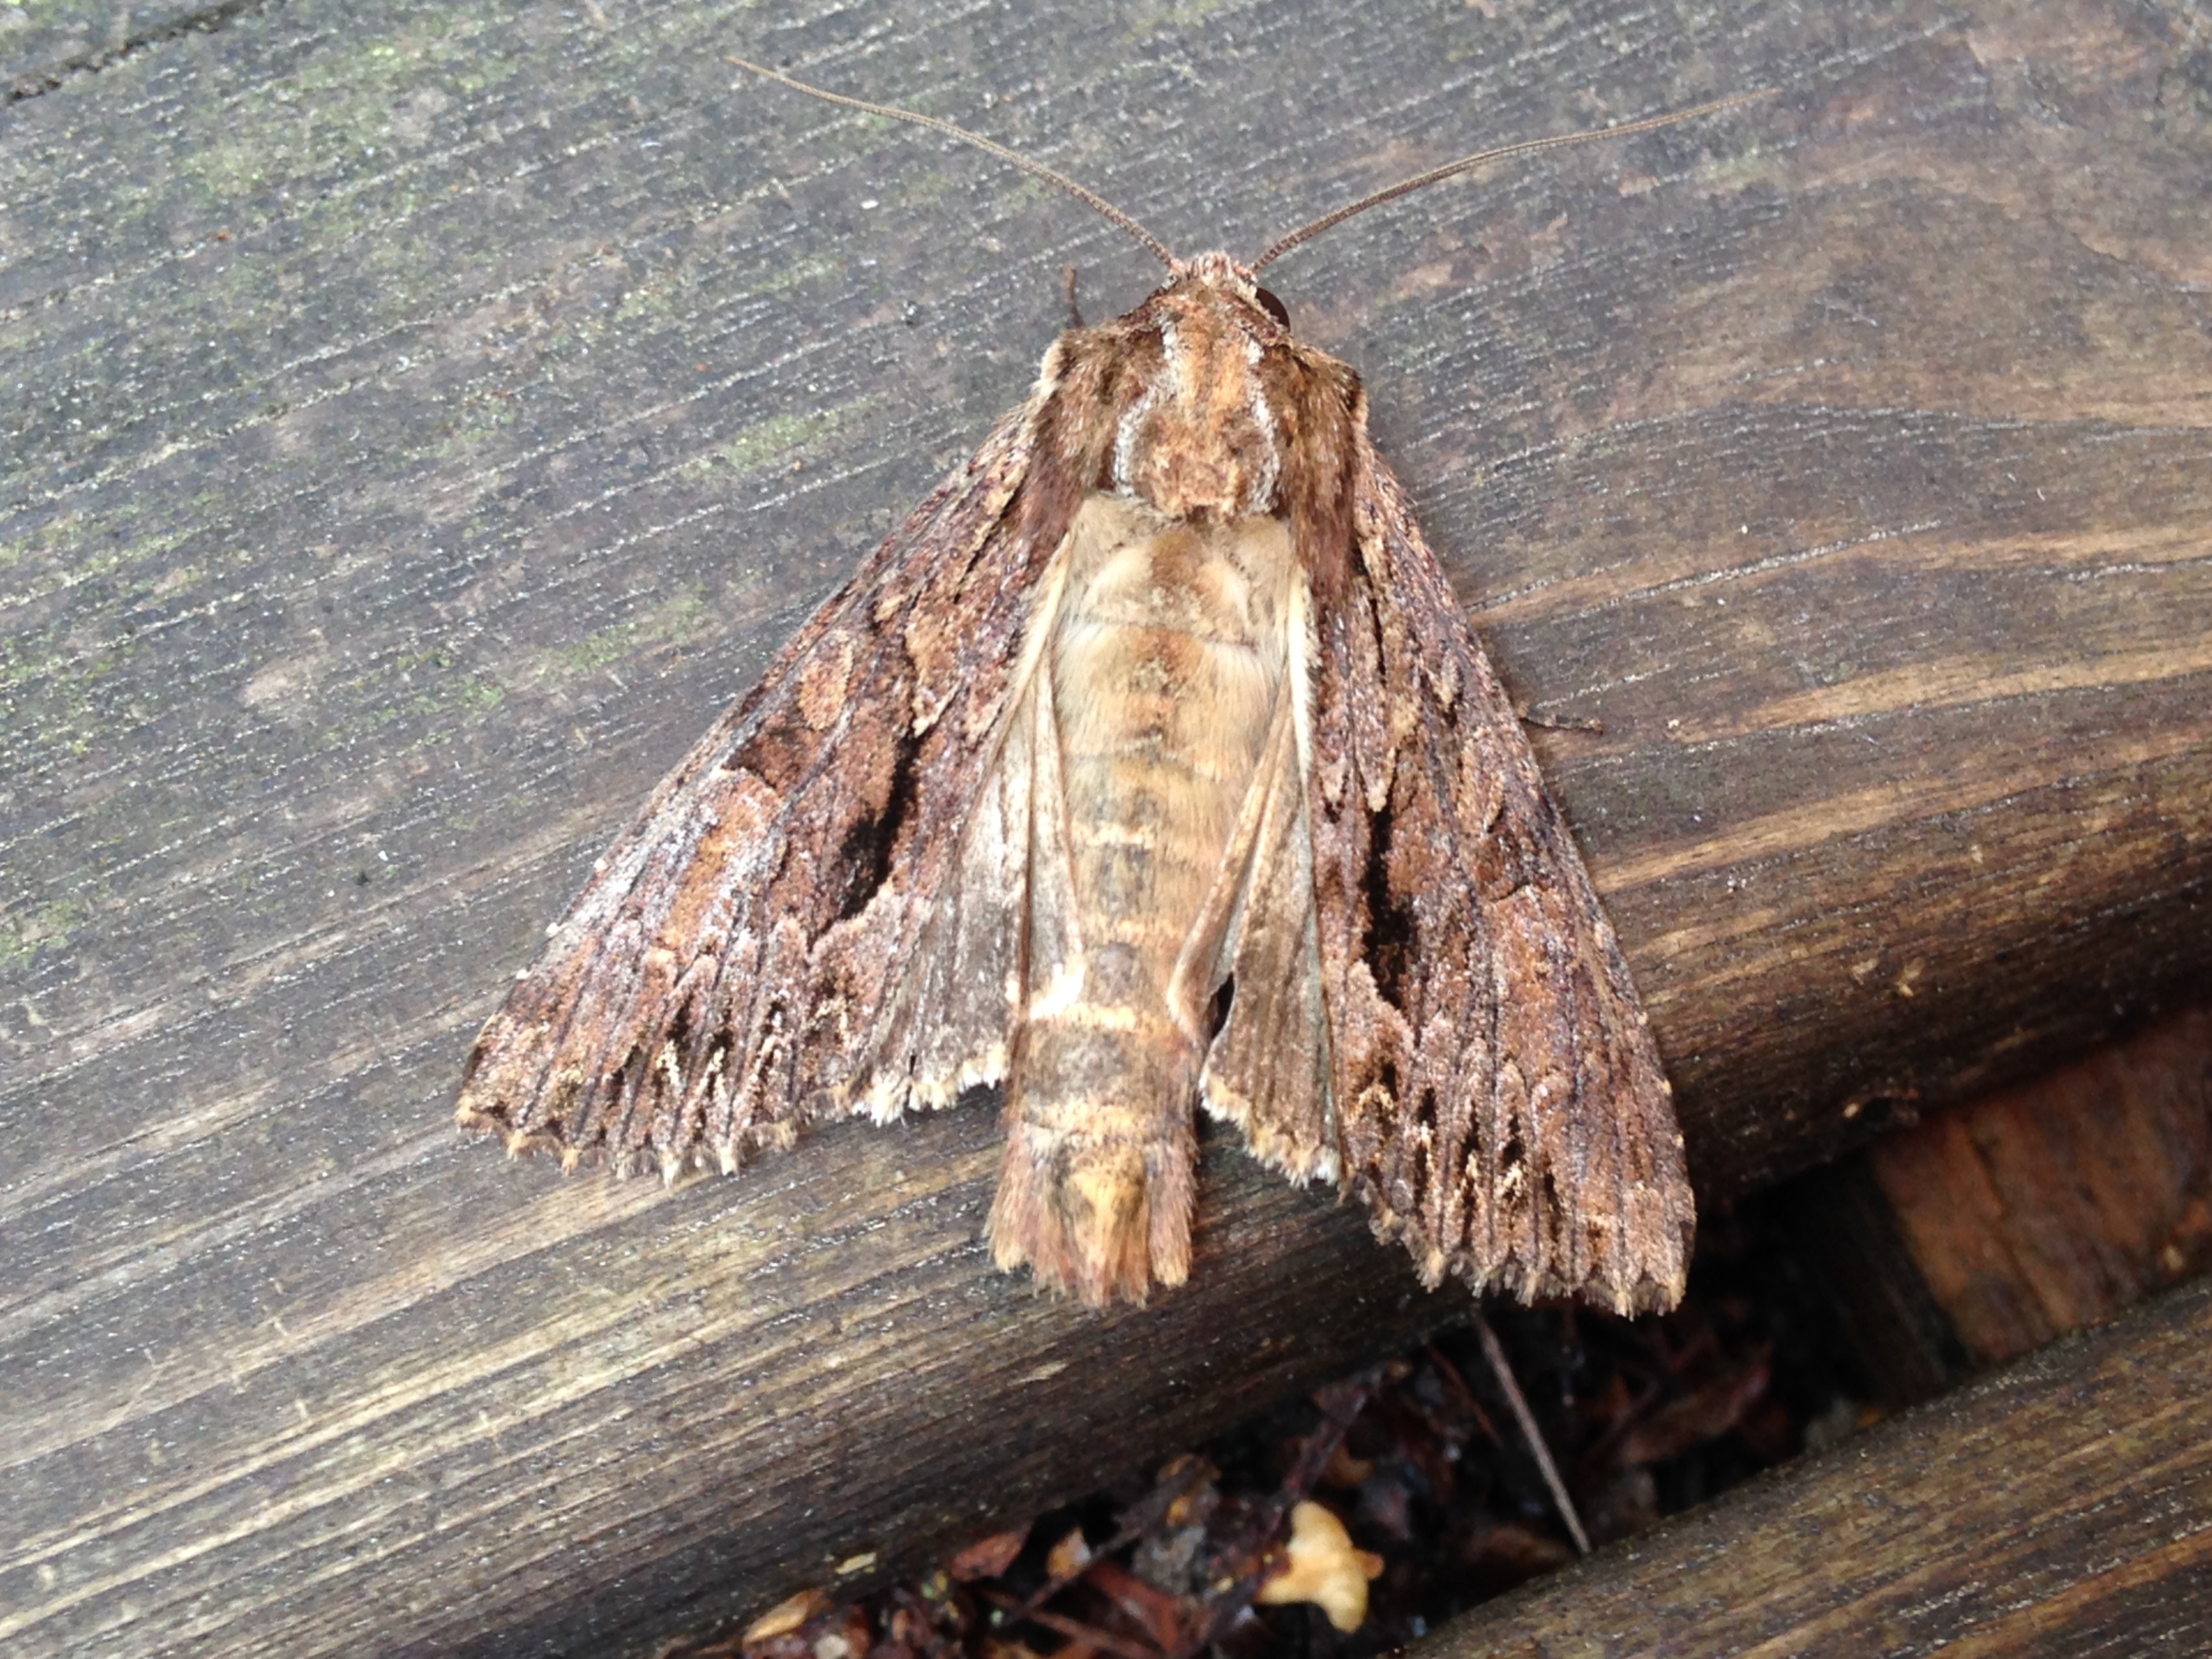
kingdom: Animalia
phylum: Arthropoda
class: Insecta
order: Lepidoptera
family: Noctuidae
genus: Apamea
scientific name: Apamea monoglypha
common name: Dark arches
